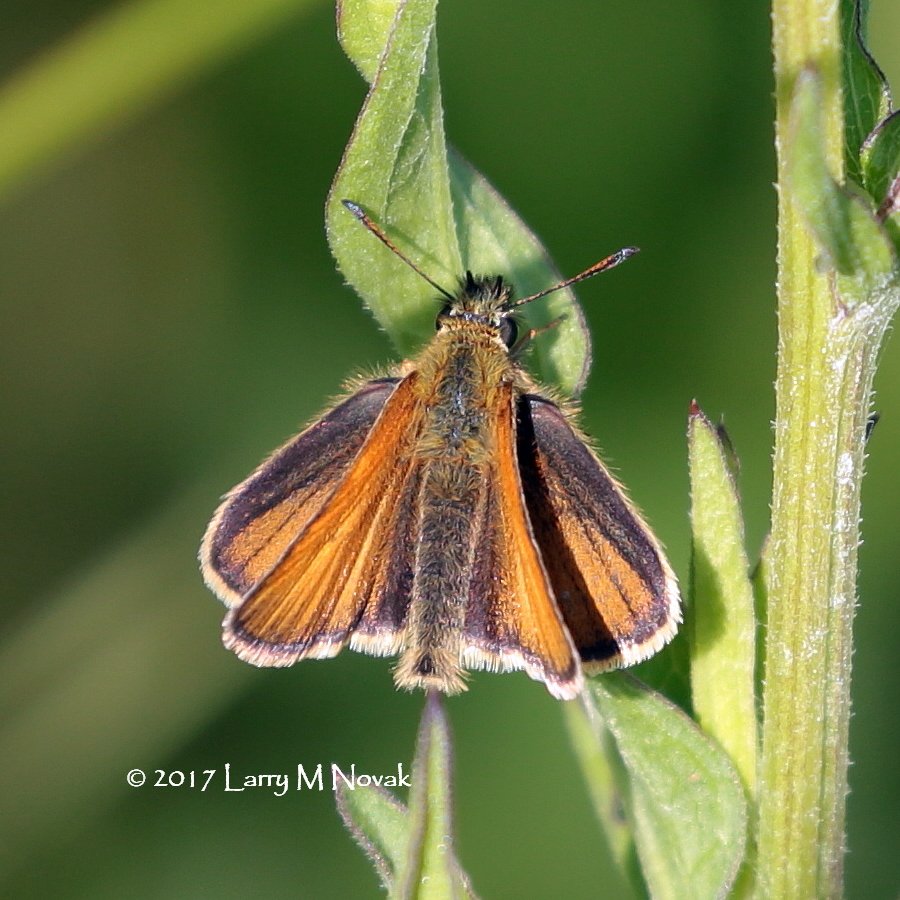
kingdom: Animalia
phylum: Arthropoda
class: Insecta
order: Lepidoptera
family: Hesperiidae
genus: Thymelicus
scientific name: Thymelicus lineola
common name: European Skipper
